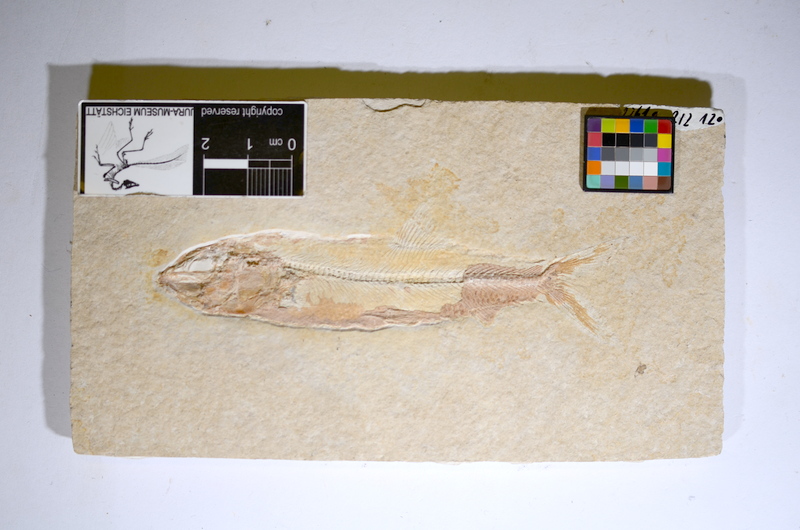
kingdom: Animalia
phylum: Chordata
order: Elopiformes
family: Anaethalionidae
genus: Anaethalion
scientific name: Anaethalion angustus
